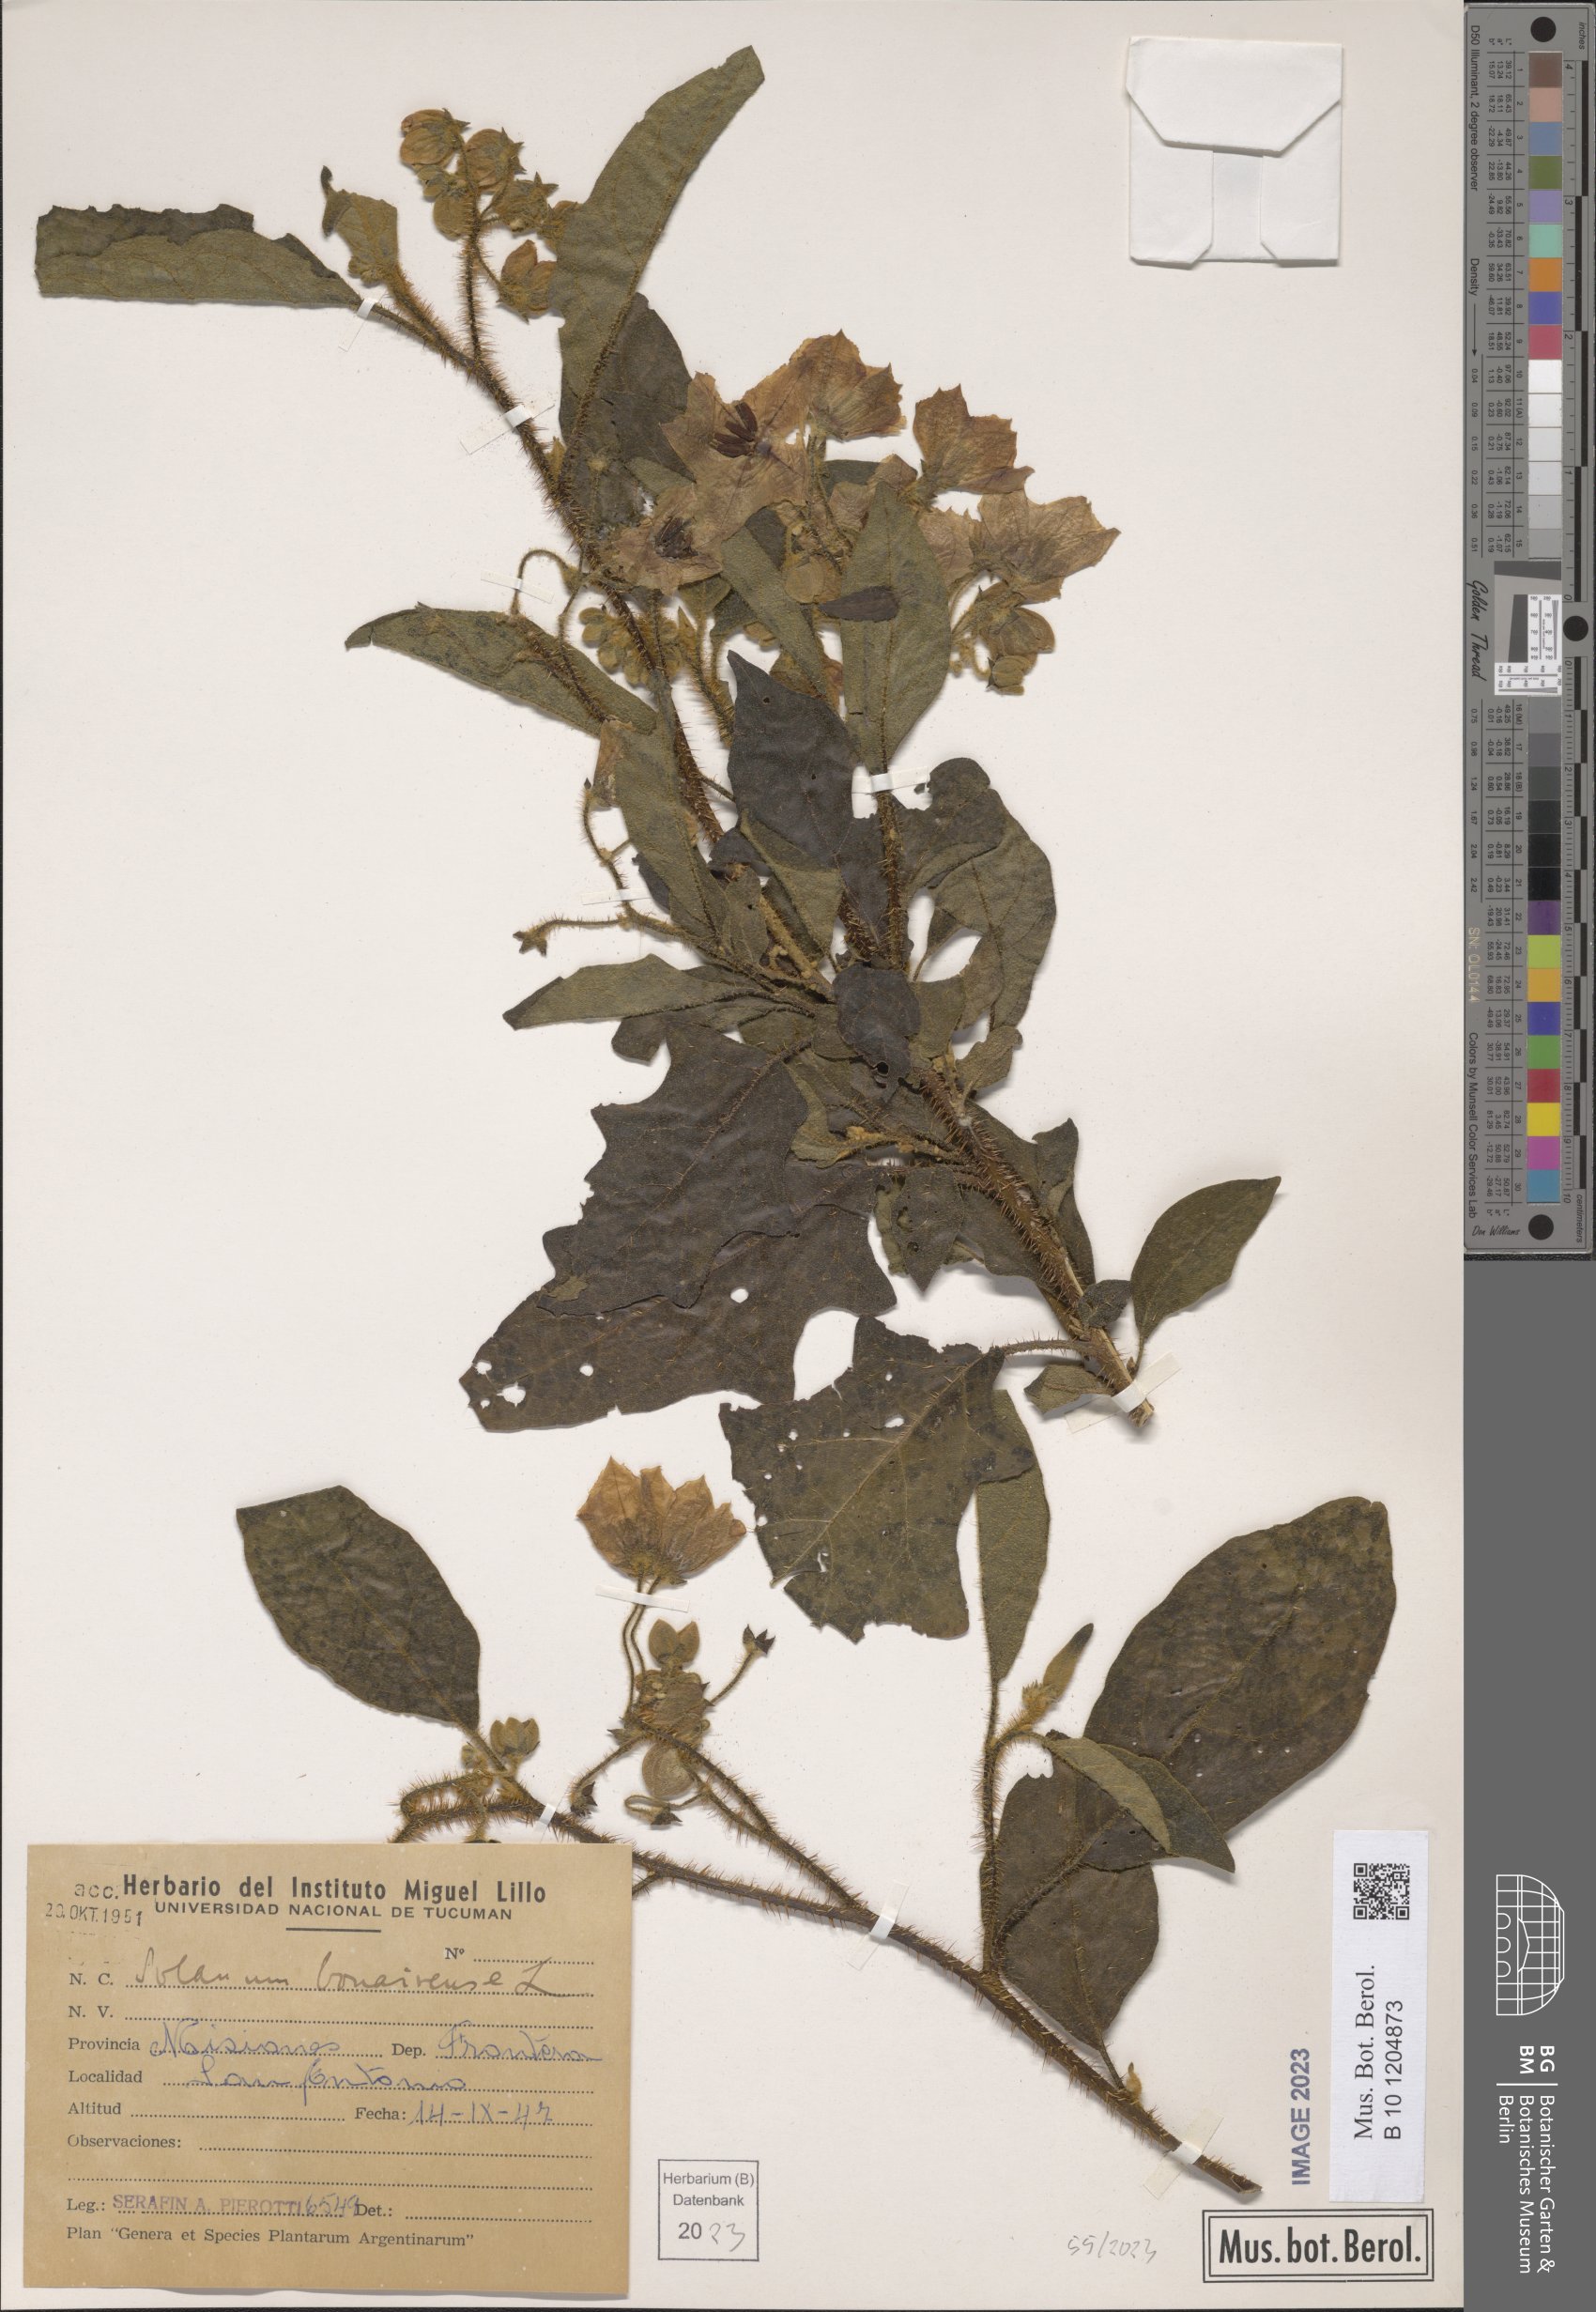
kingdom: Plantae
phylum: Tracheophyta
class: Magnoliopsida
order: Solanales
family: Solanaceae
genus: Solanum
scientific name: Solanum bonariense
